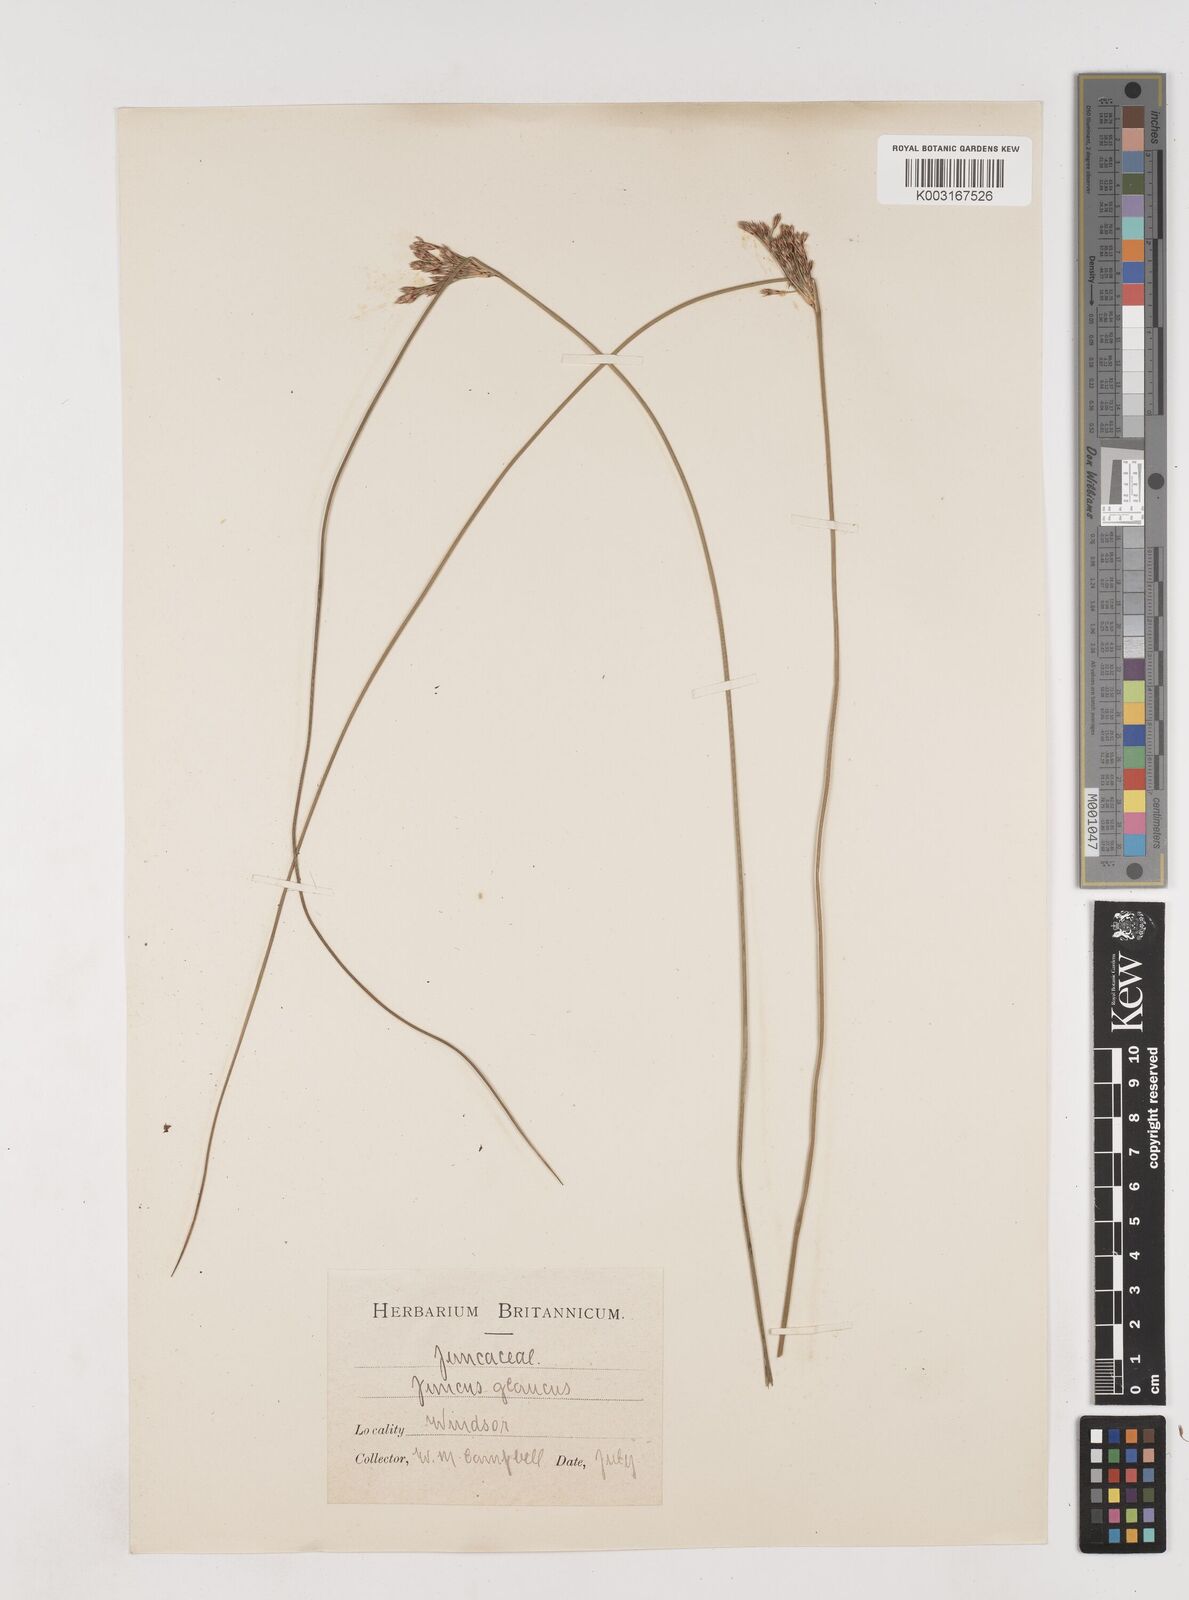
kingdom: Plantae
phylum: Tracheophyta
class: Liliopsida
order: Poales
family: Juncaceae
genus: Juncus
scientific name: Juncus inflexus
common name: Hard rush
